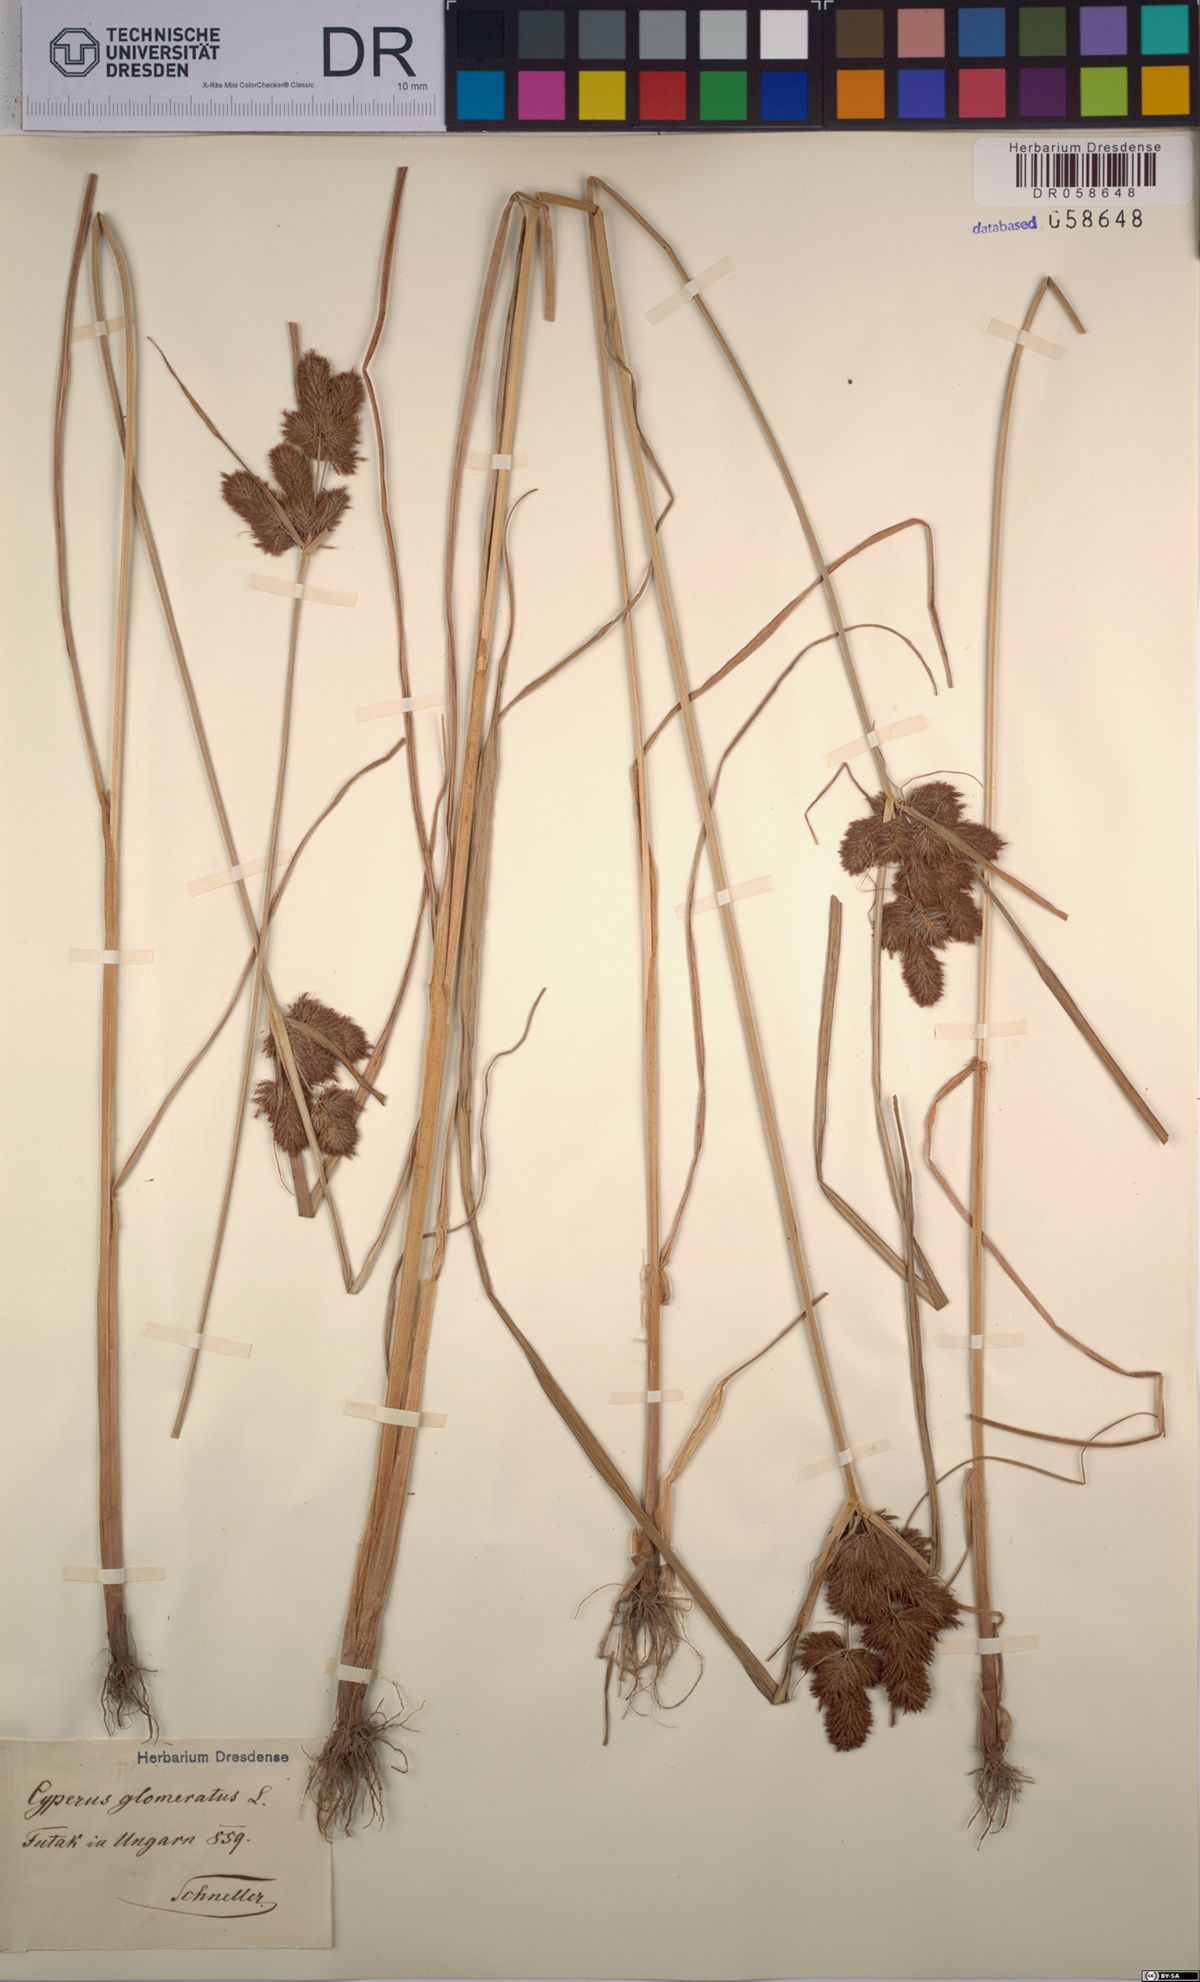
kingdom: Plantae
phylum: Tracheophyta
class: Liliopsida
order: Poales
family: Cyperaceae
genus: Cyperus
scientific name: Cyperus glomeratus
